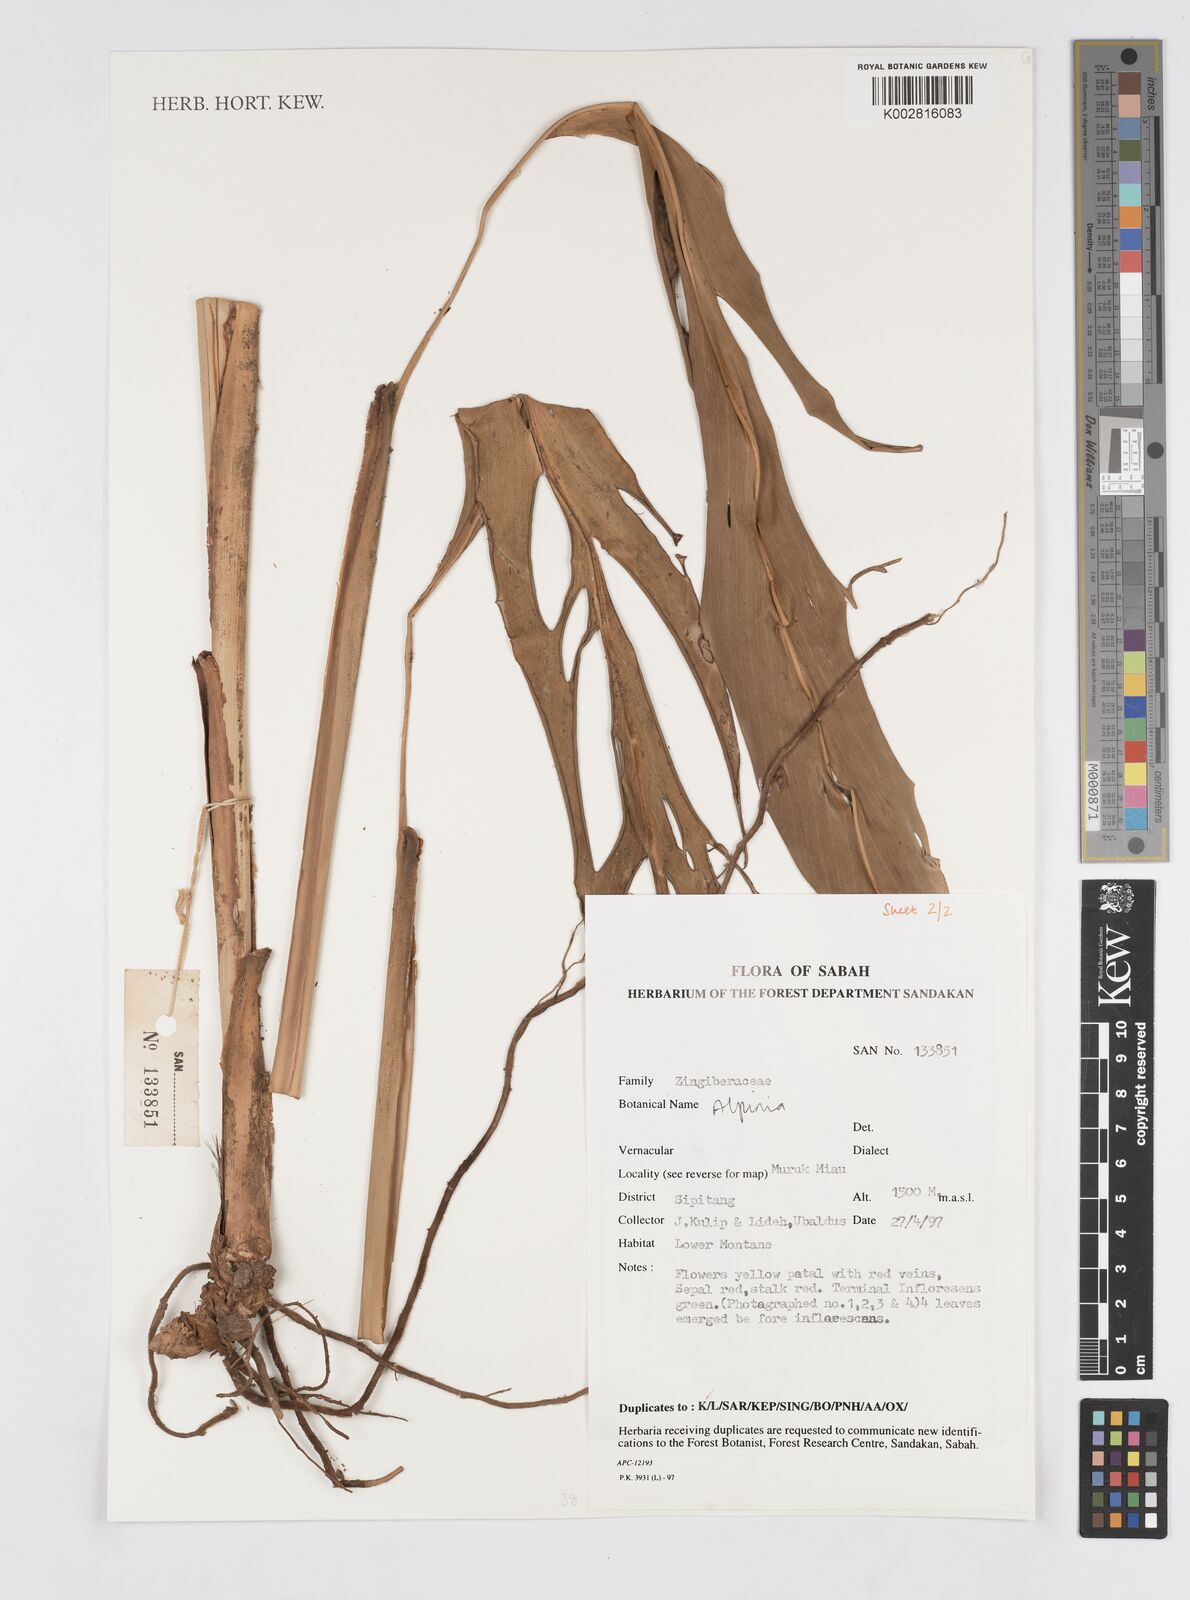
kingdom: Plantae
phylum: Tracheophyta
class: Liliopsida
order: Zingiberales
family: Zingiberaceae
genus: Alpinia
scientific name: Alpinia
